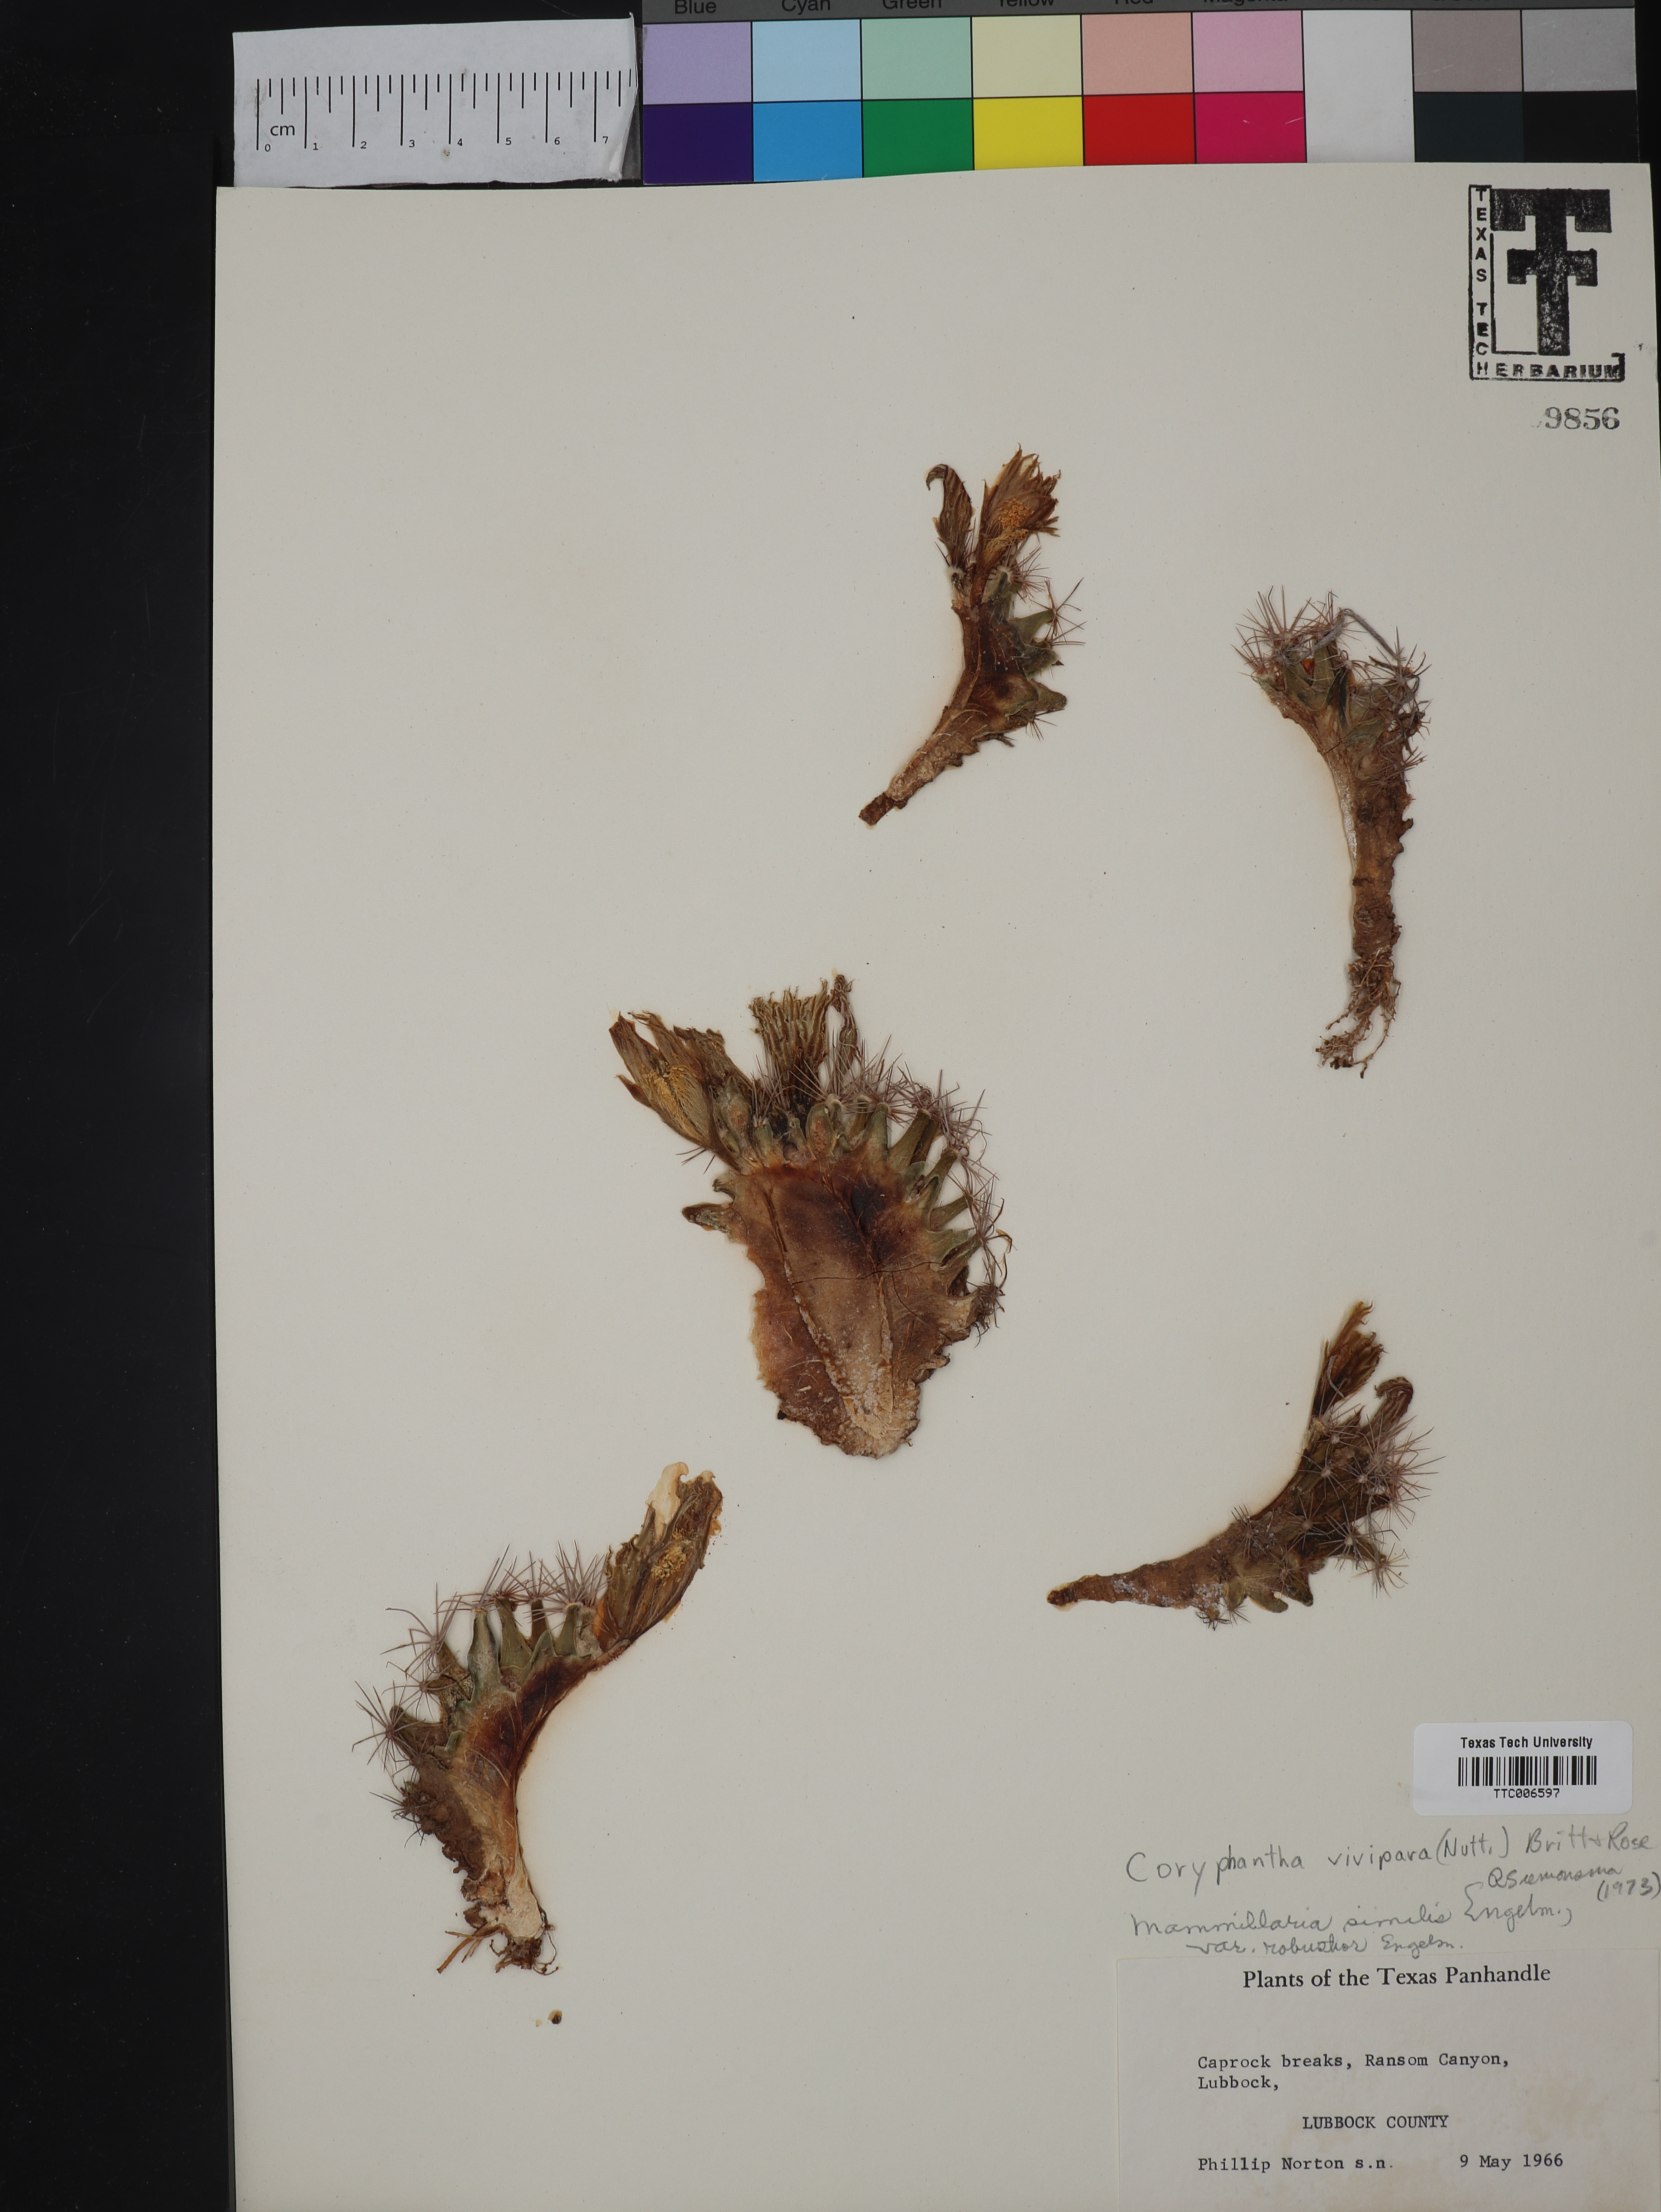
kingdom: Plantae
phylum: Tracheophyta
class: Magnoliopsida
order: Caryophyllales
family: Cactaceae
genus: Pelecyphora
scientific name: Pelecyphora vivipara
